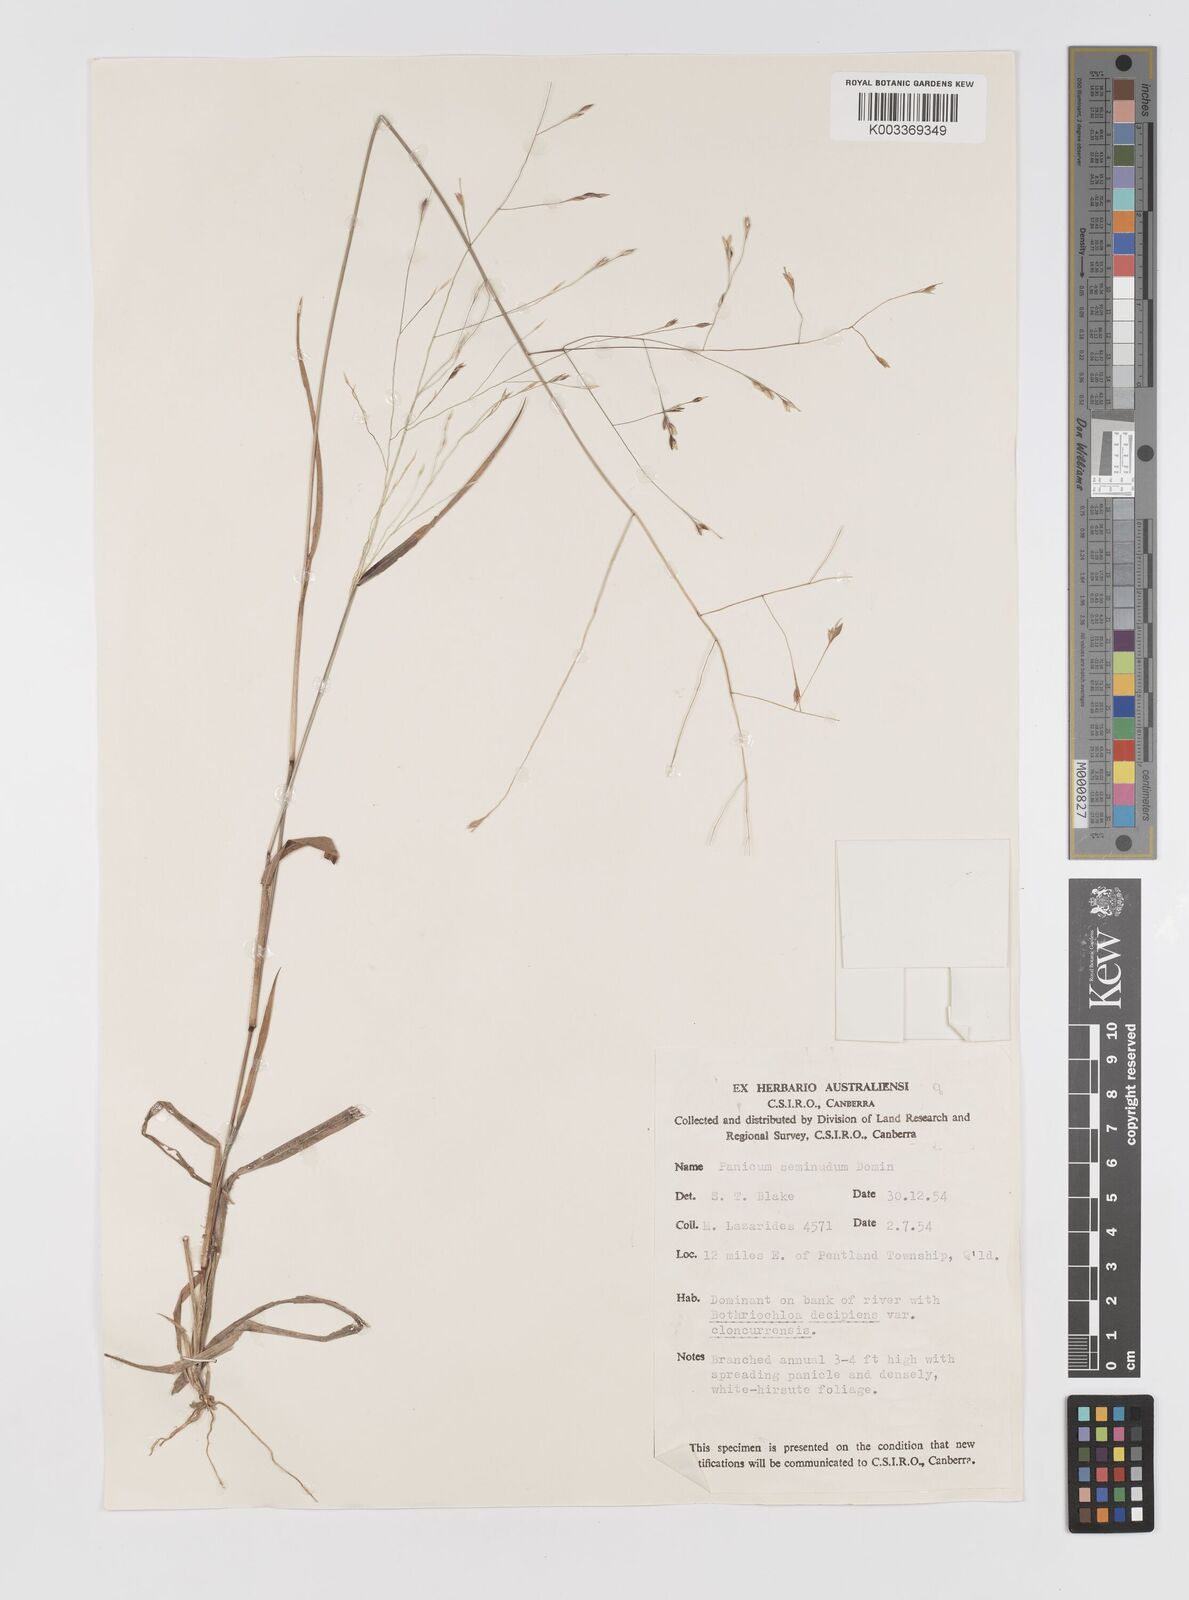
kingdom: Plantae
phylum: Tracheophyta
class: Liliopsida
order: Poales
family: Poaceae
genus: Panicum
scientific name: Panicum seminudum
